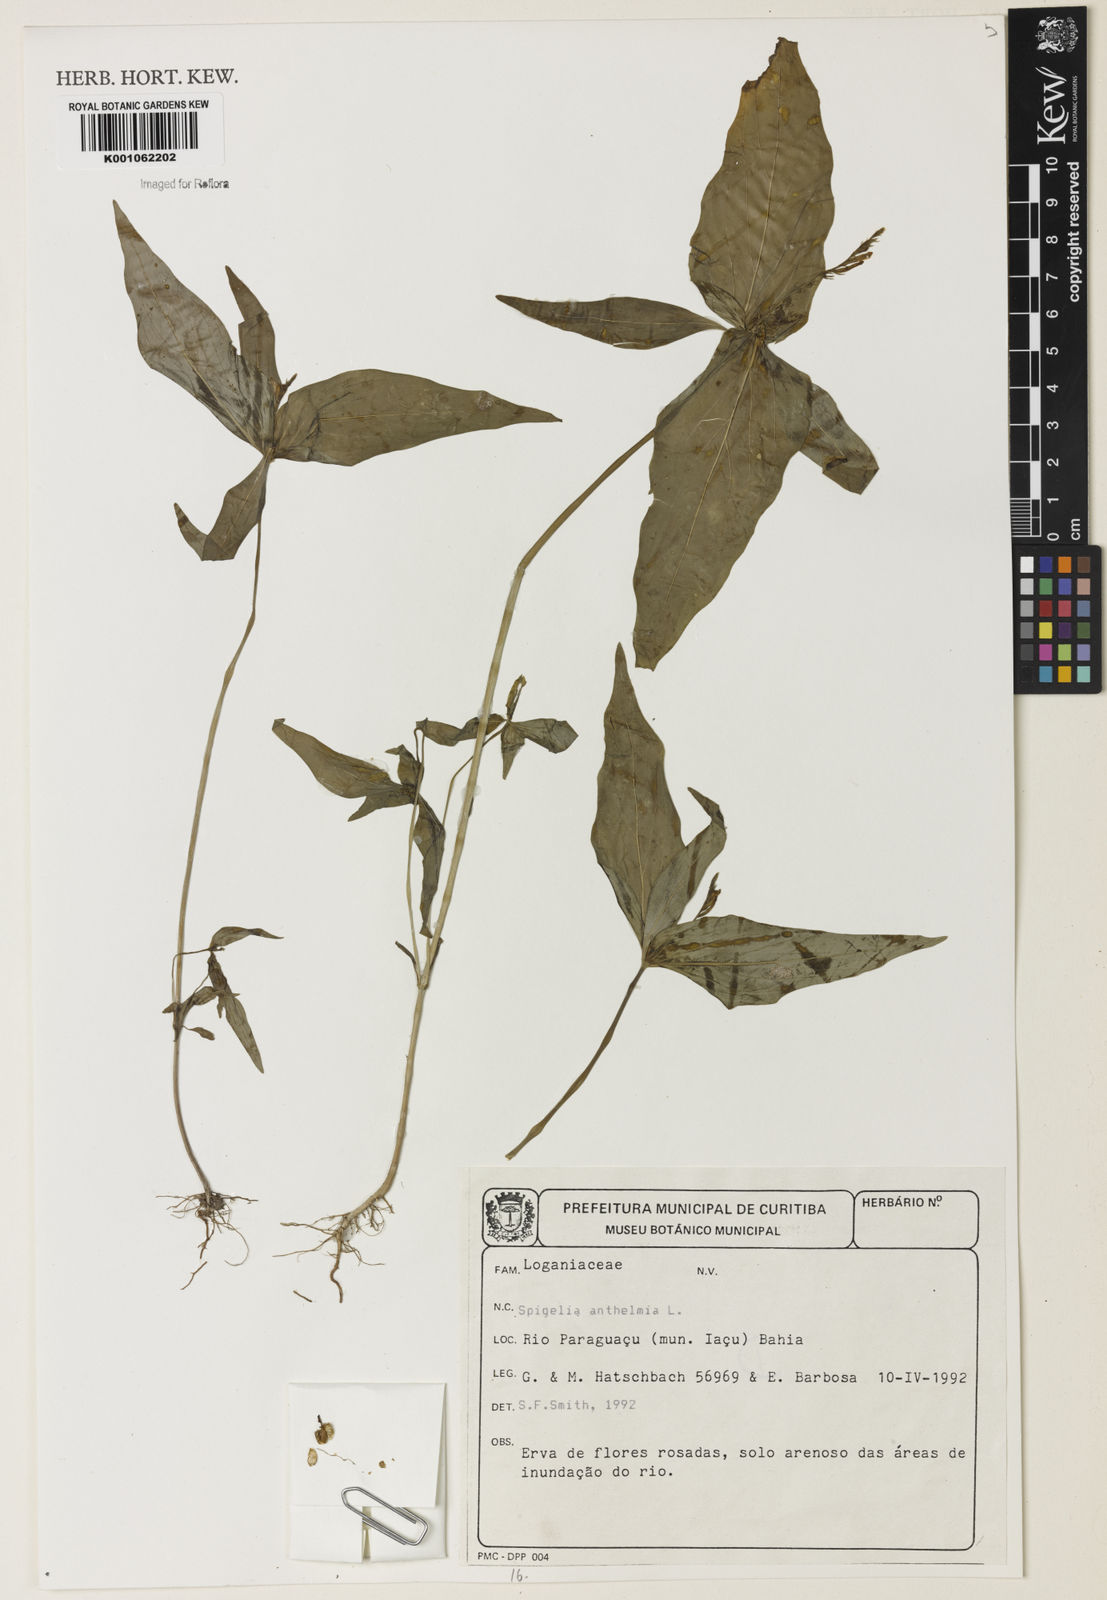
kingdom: Plantae
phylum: Tracheophyta
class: Magnoliopsida
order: Gentianales
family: Loganiaceae
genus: Spigelia
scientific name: Spigelia anthelmia
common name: West indian-pink
